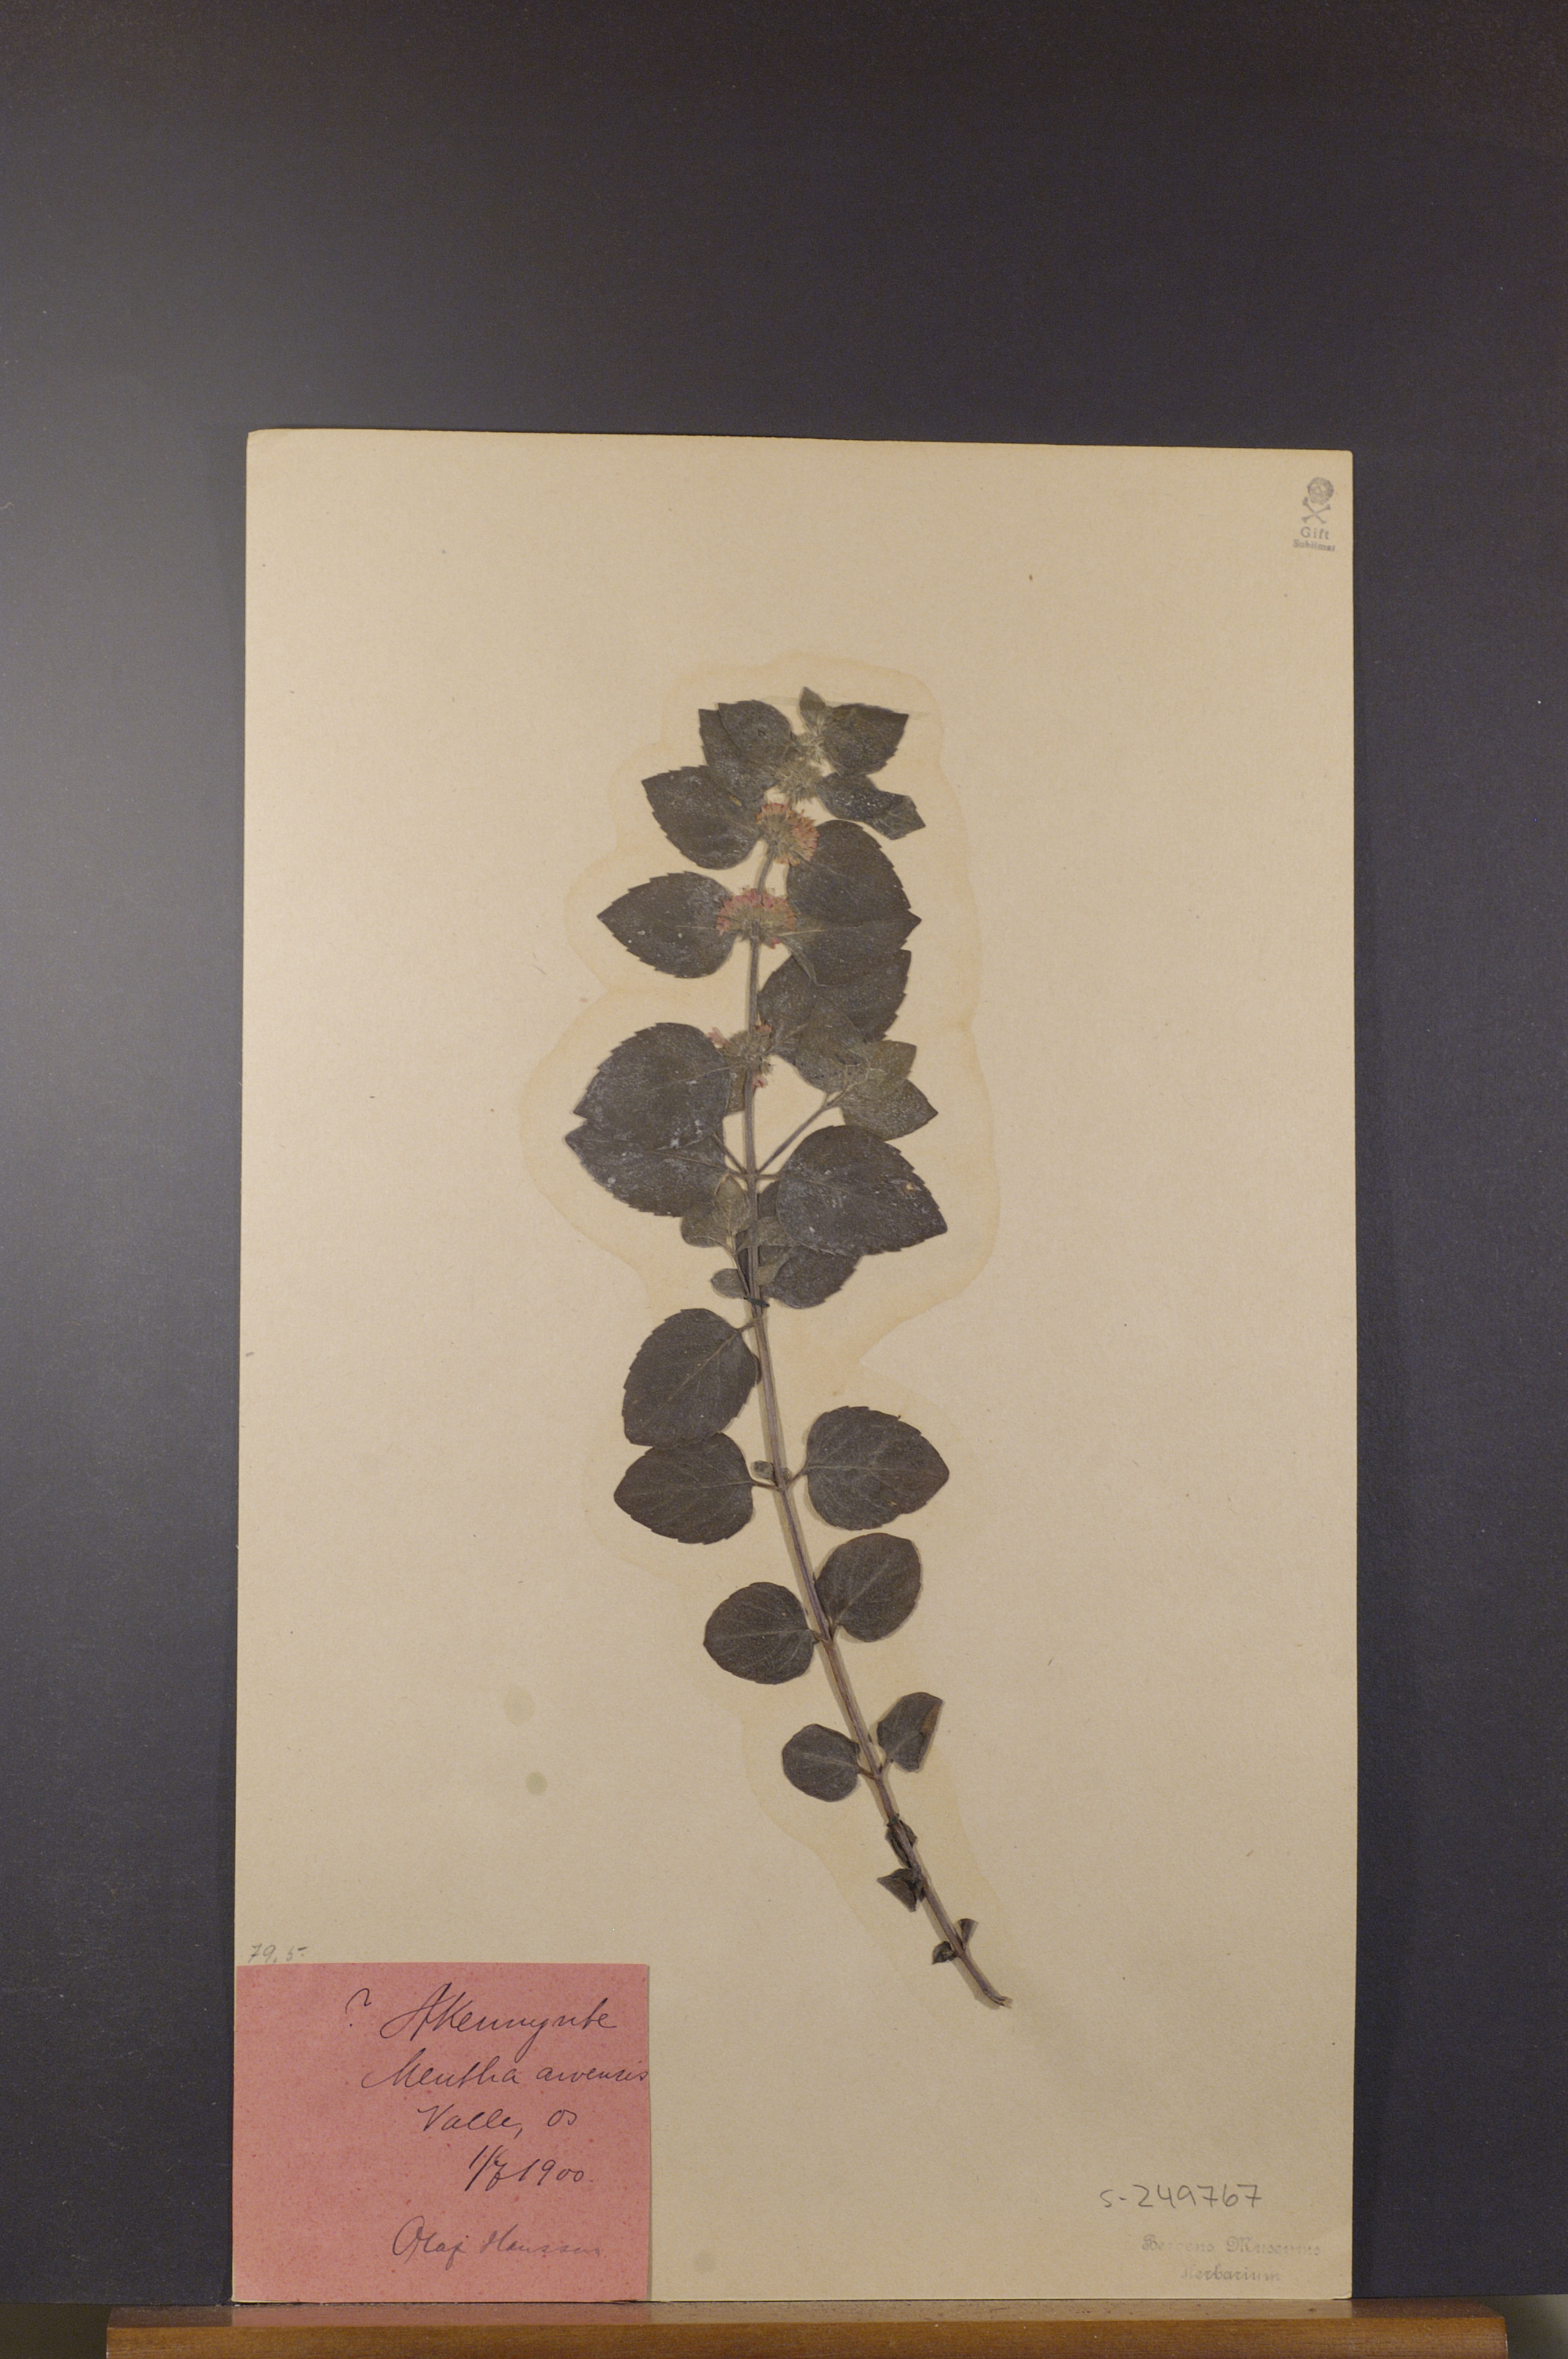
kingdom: Plantae
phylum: Tracheophyta
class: Magnoliopsida
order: Lamiales
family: Lamiaceae
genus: Mentha
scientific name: Mentha arvensis
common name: Corn mint
